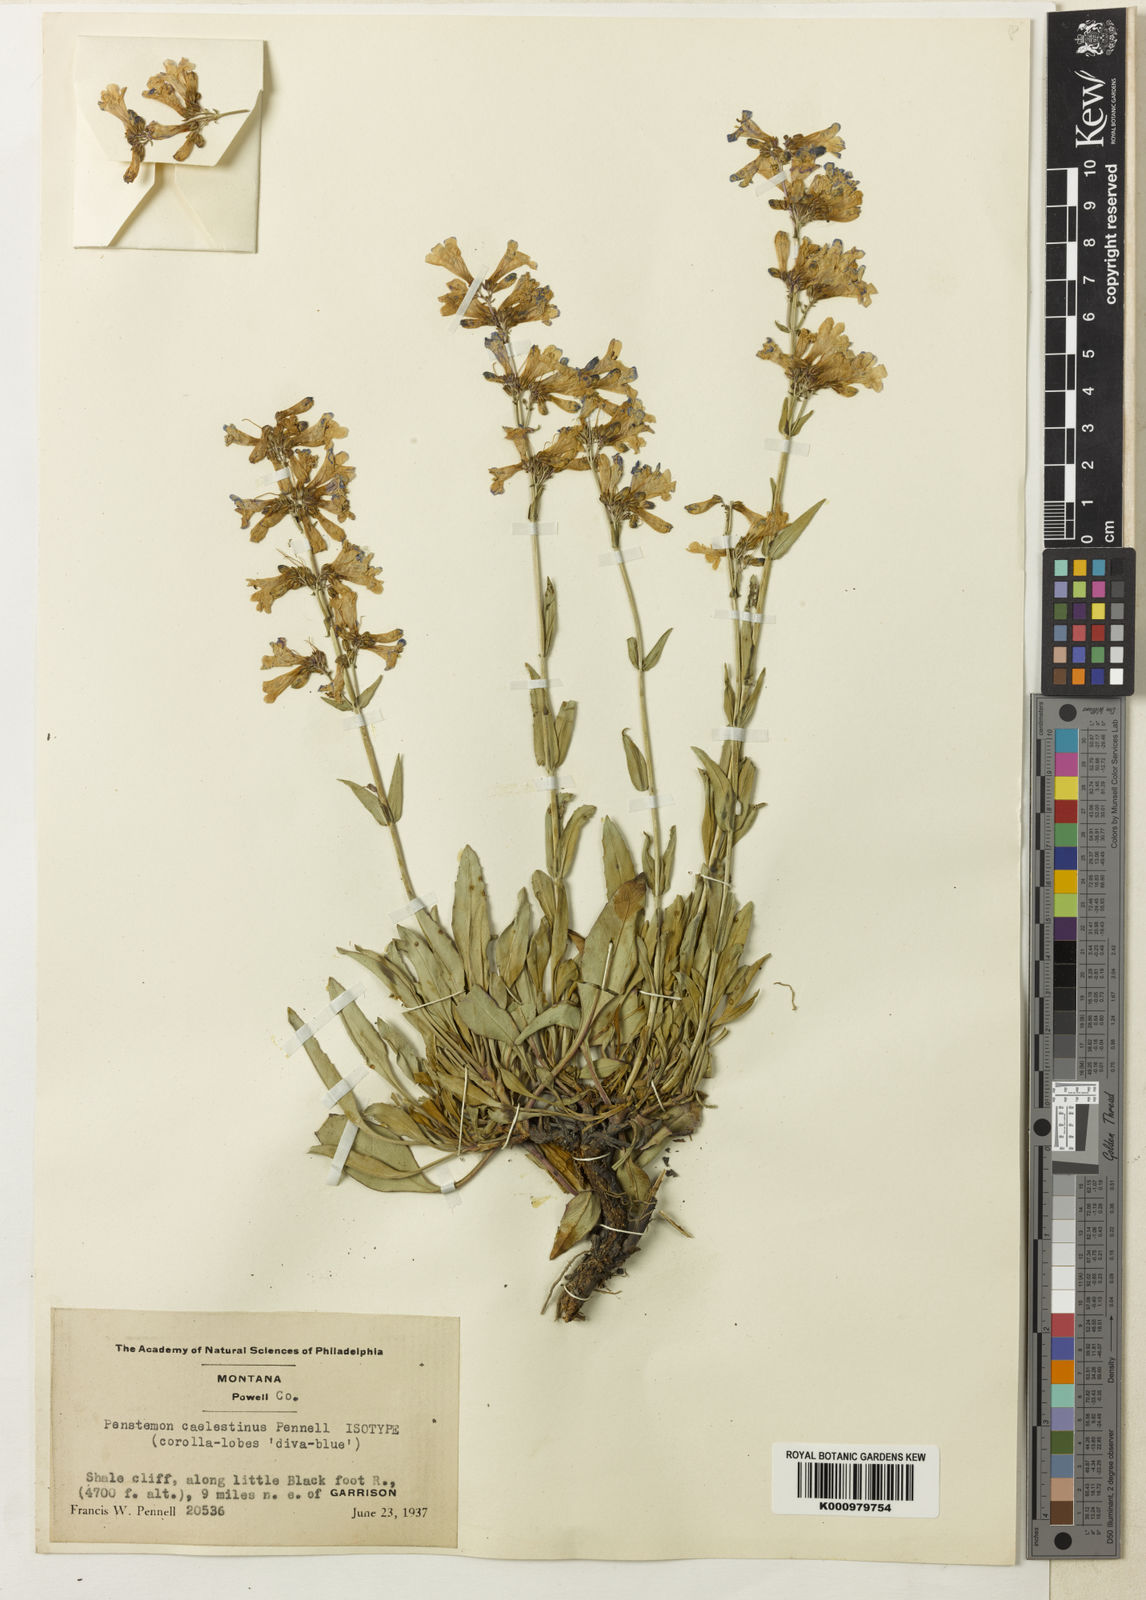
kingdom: Plantae
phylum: Tracheophyta
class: Magnoliopsida
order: Lamiales
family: Plantaginaceae
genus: Penstemon
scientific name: Penstemon albertinus
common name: Alberta beardtongue
